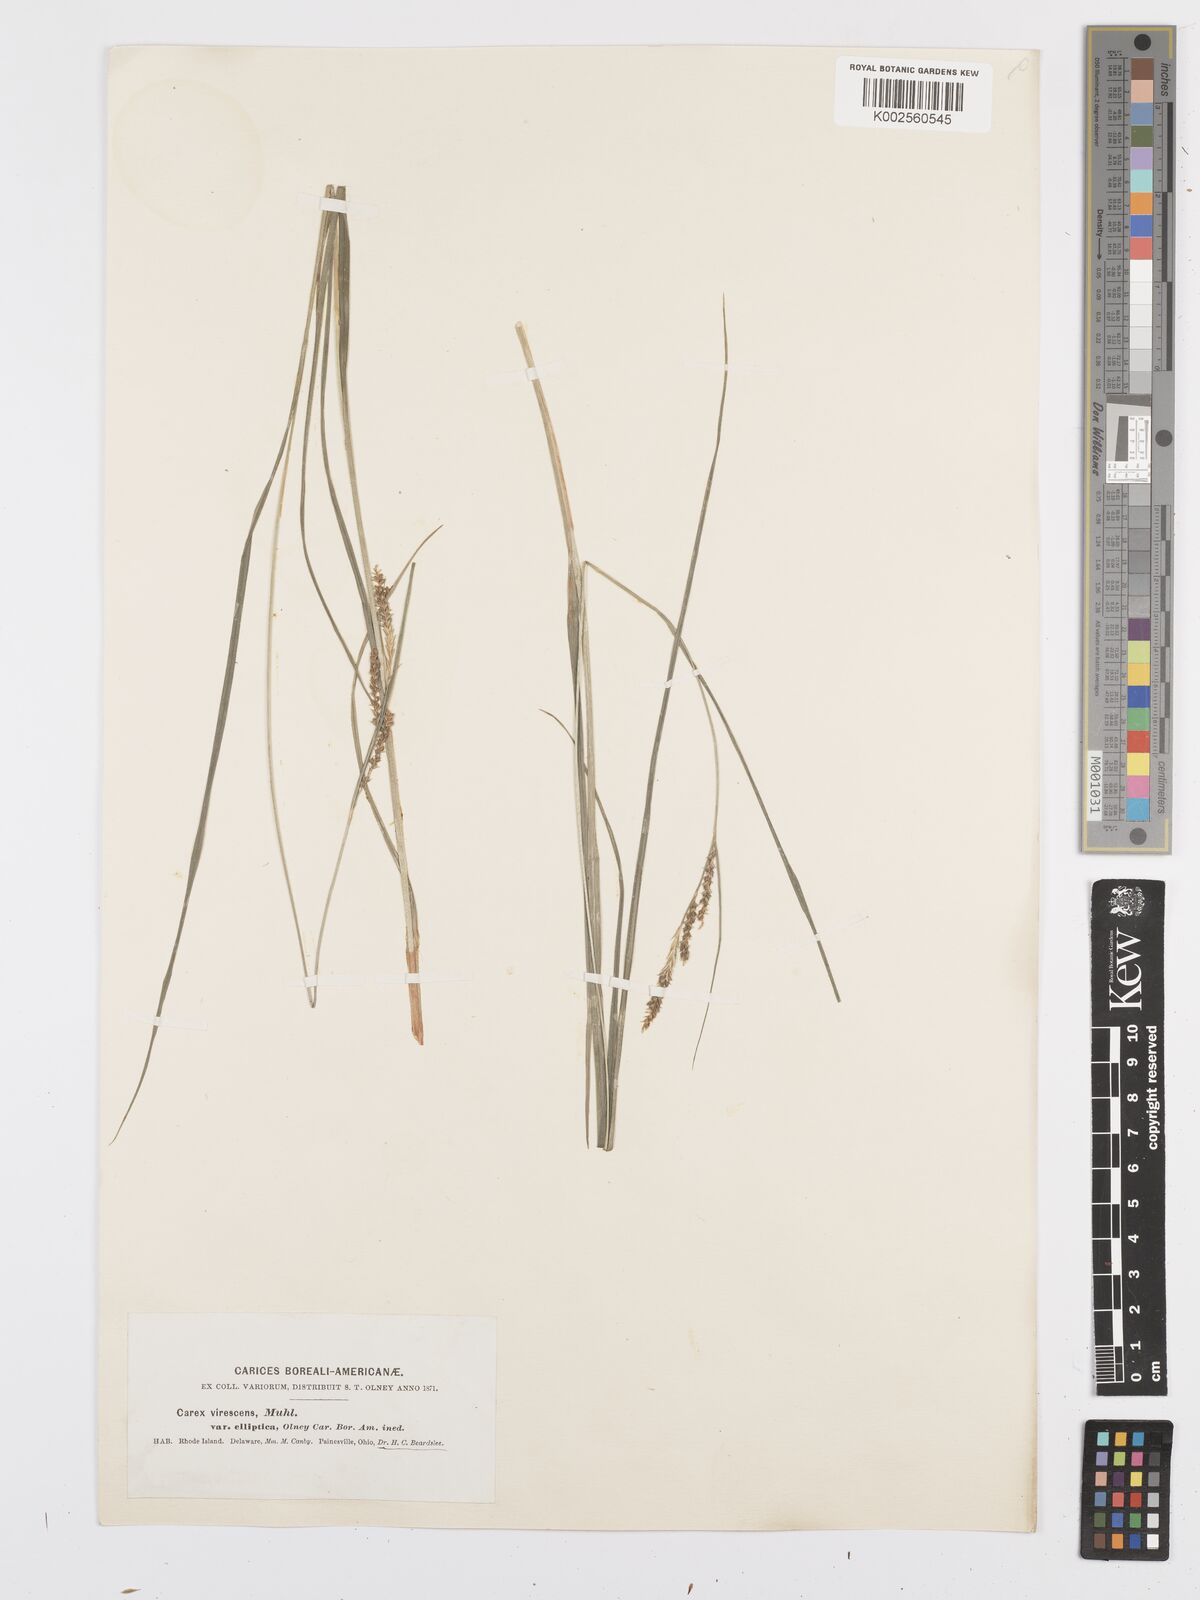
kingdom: Plantae
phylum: Tracheophyta
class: Liliopsida
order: Poales
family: Cyperaceae
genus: Carex
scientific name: Carex virescens
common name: Ribbed sedge
